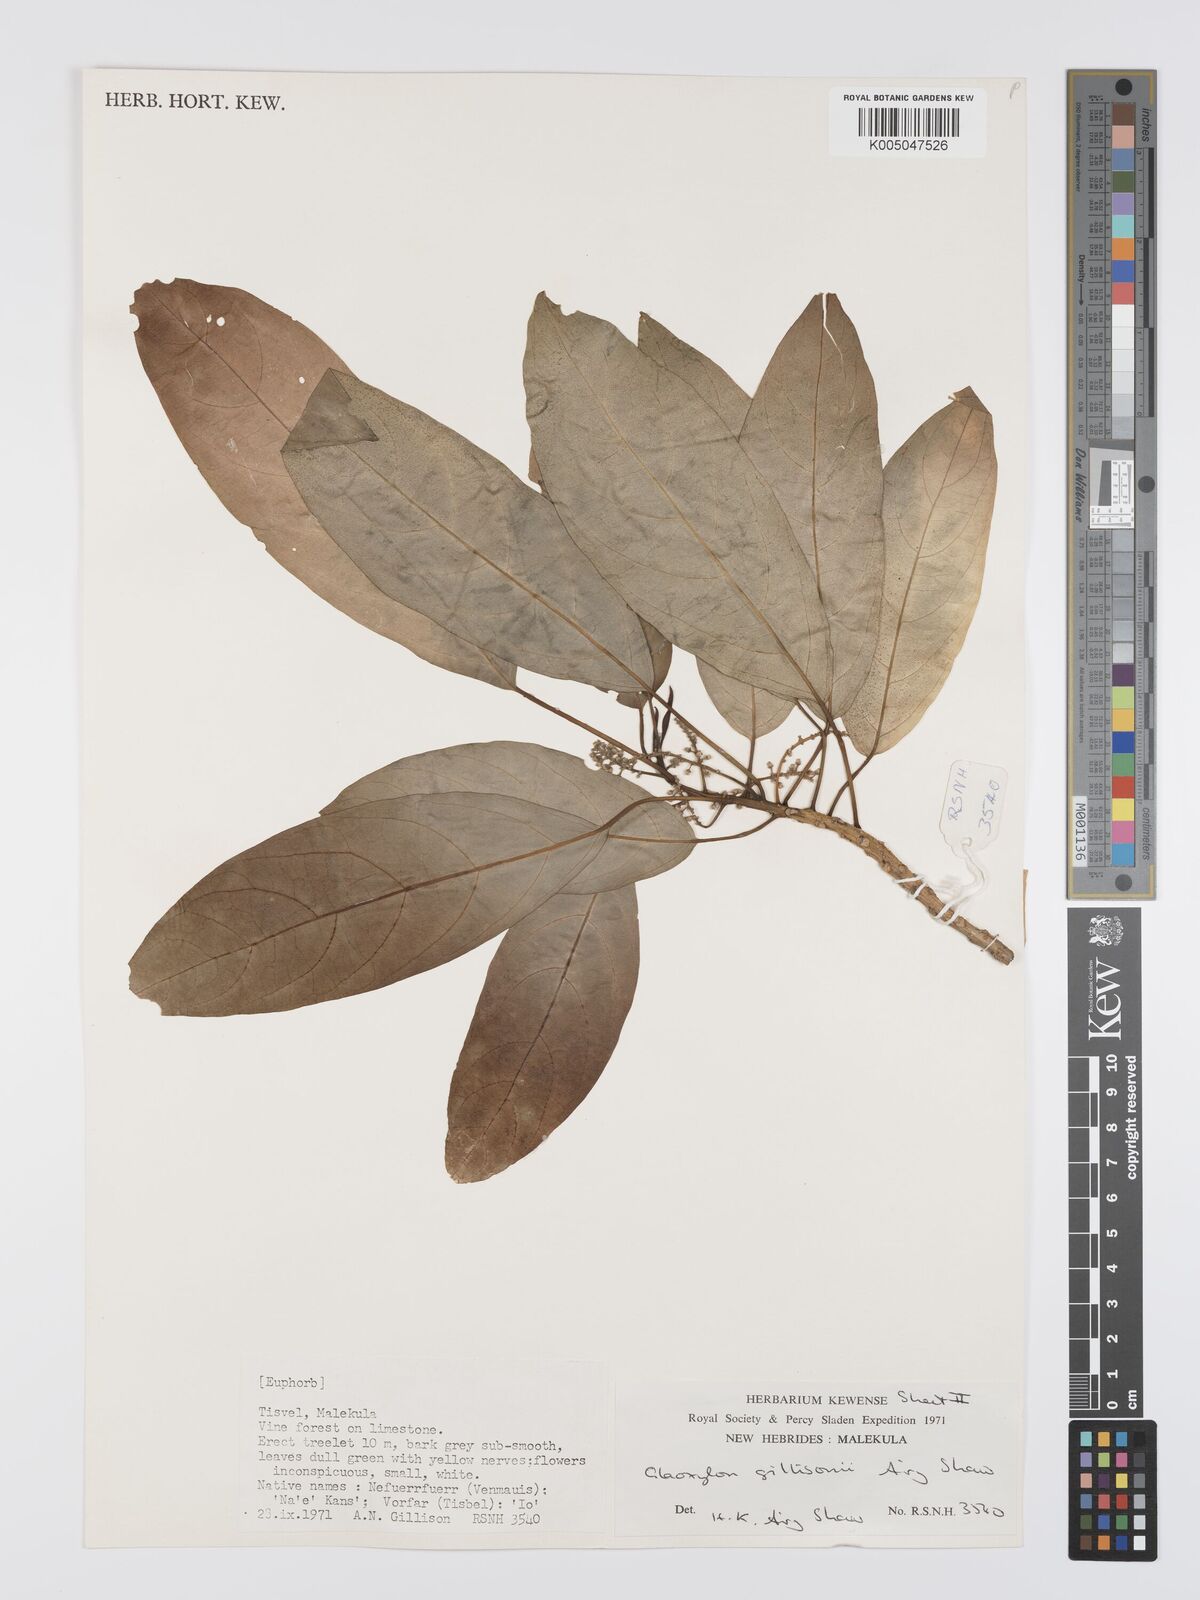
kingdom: Plantae
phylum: Tracheophyta
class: Magnoliopsida
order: Malpighiales
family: Euphorbiaceae
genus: Claoxylon
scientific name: Claoxylon gillisonii
